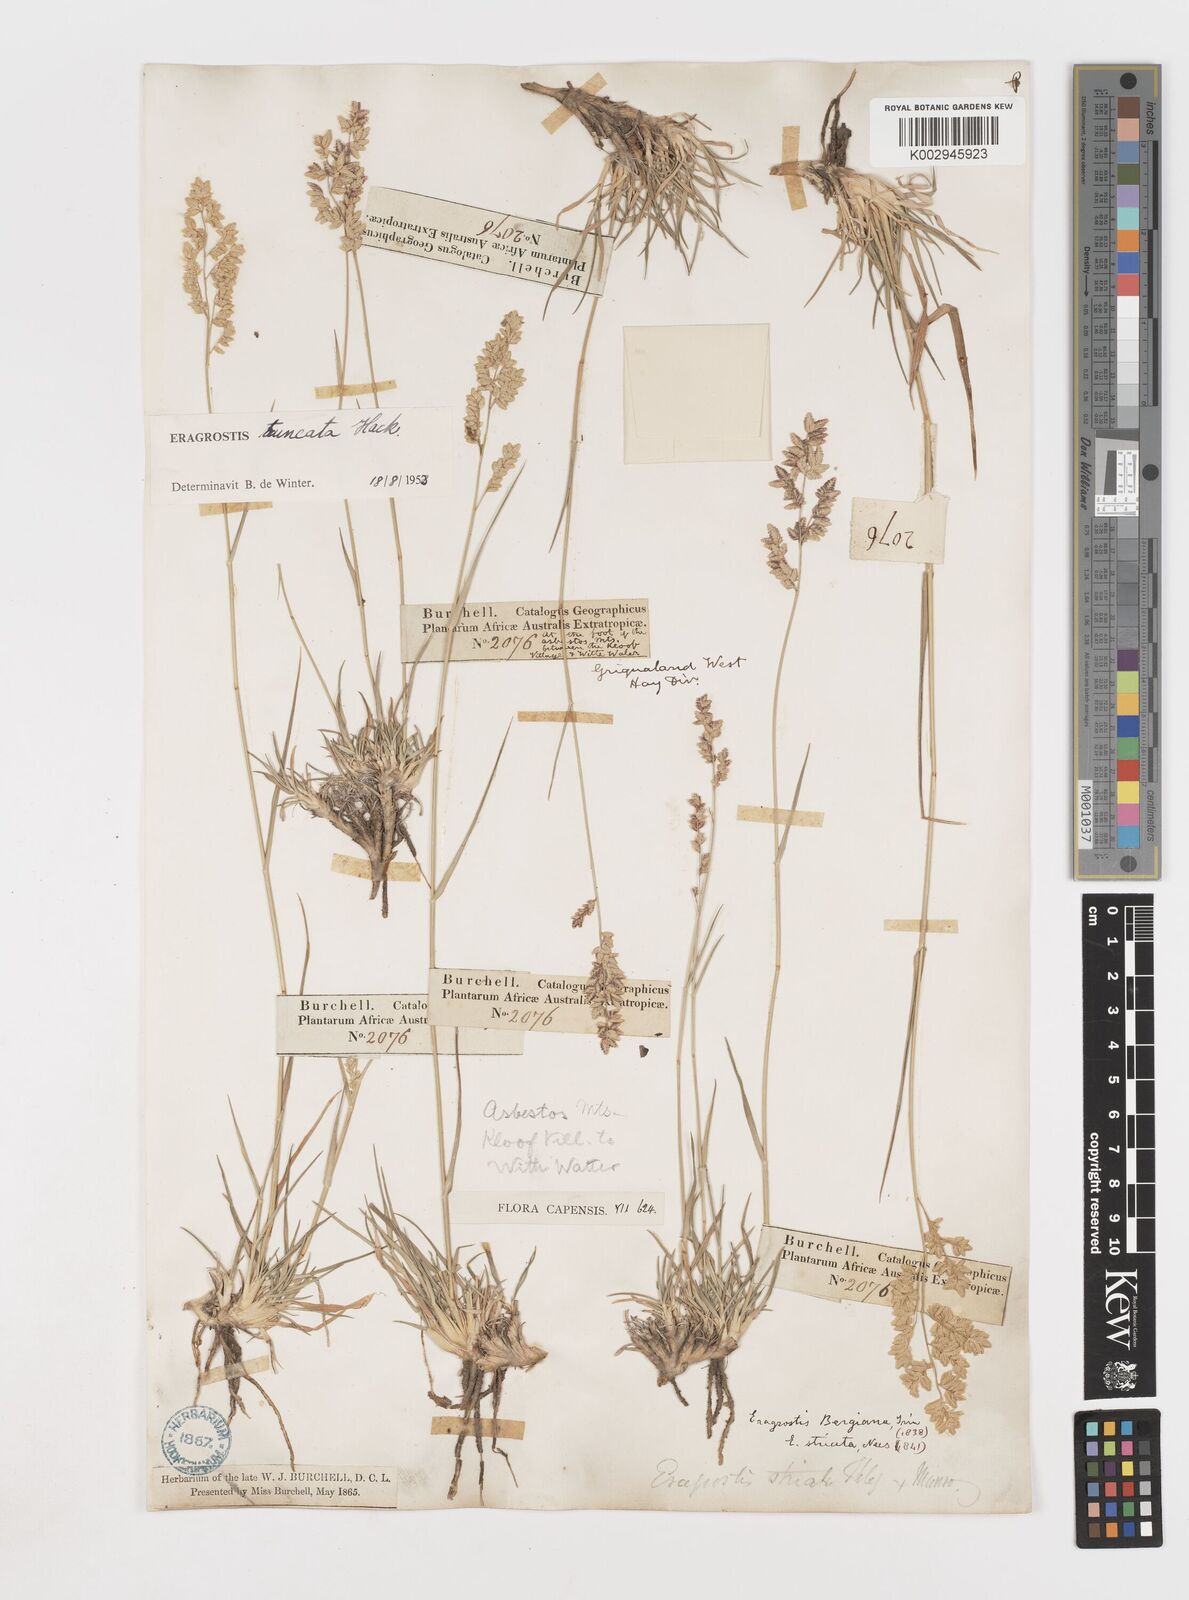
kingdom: Plantae
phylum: Tracheophyta
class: Liliopsida
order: Poales
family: Poaceae
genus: Eragrostis
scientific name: Eragrostis truncata
